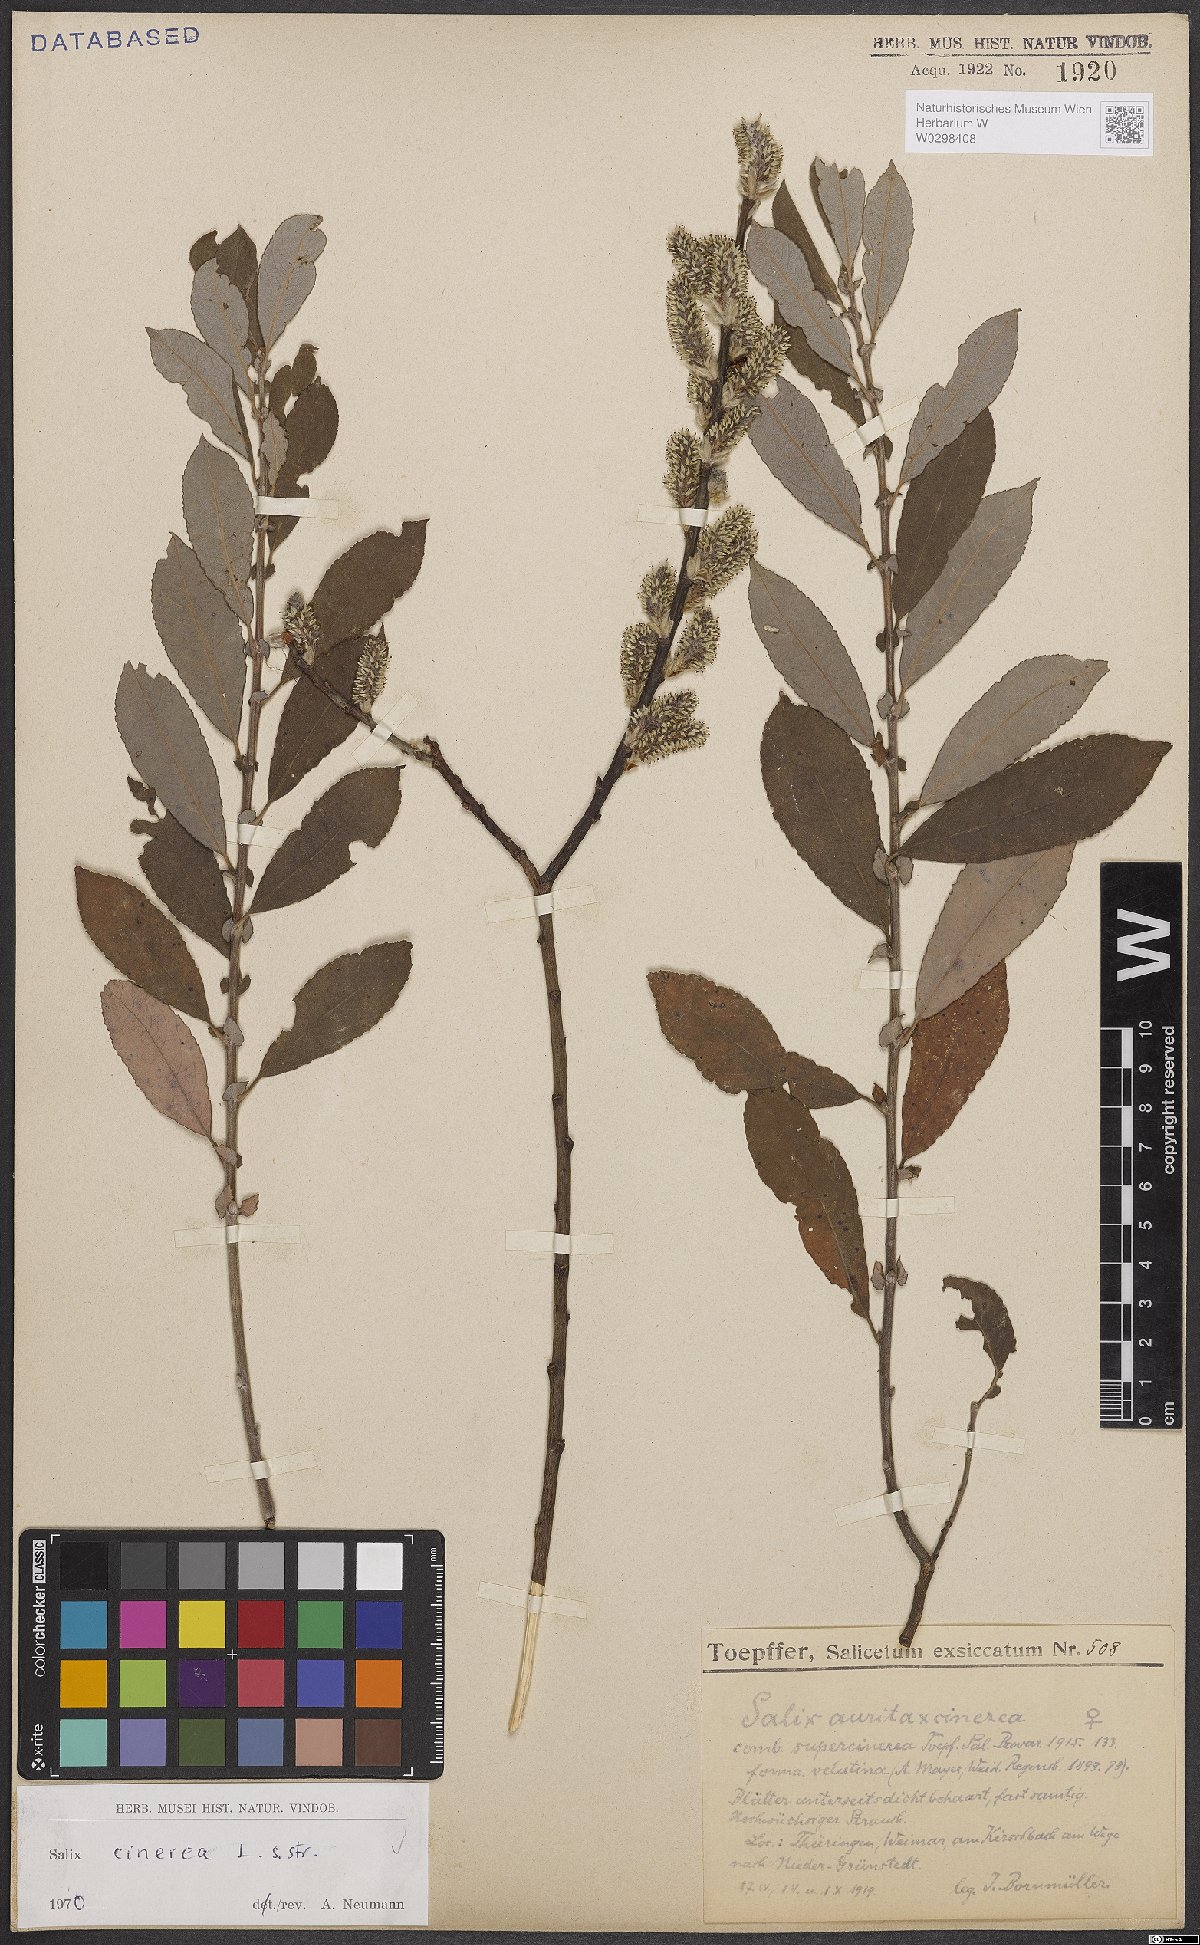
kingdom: Plantae
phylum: Tracheophyta
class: Magnoliopsida
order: Malpighiales
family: Salicaceae
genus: Salix
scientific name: Salix cinerea
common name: Common sallow
